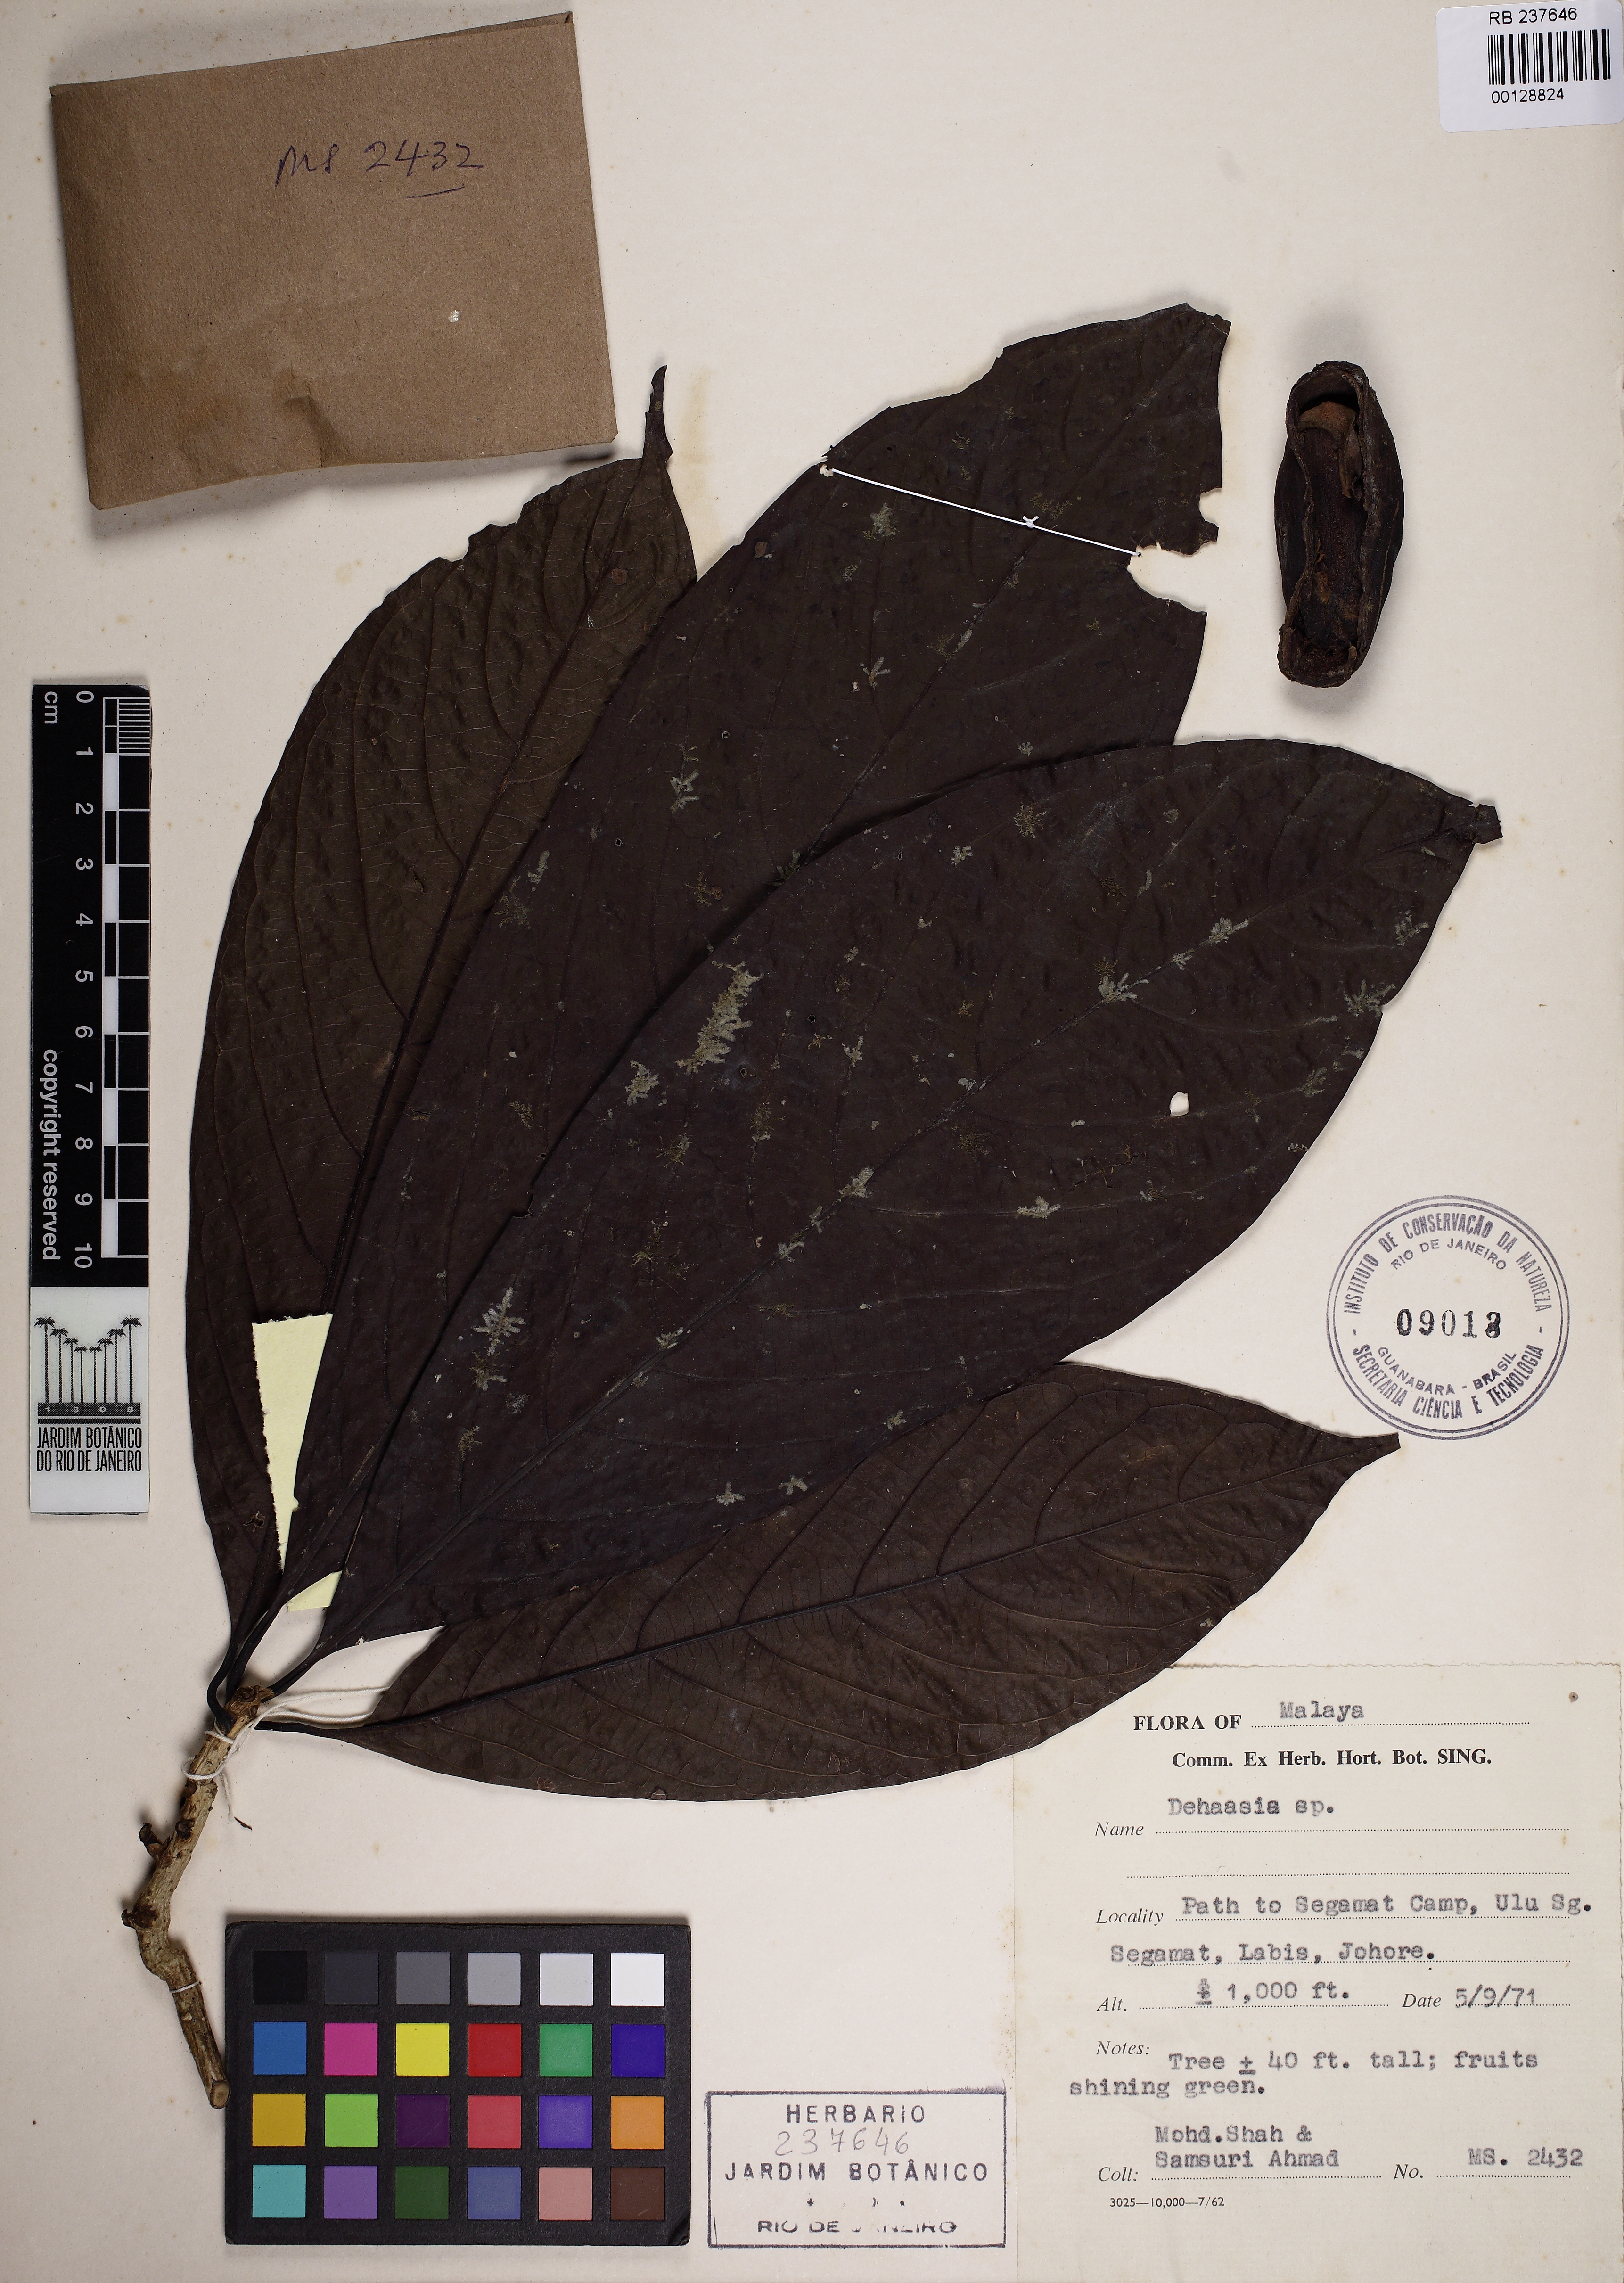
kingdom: Plantae
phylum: Tracheophyta
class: Magnoliopsida
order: Laurales
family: Lauraceae
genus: Dehaasia
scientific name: Dehaasia
